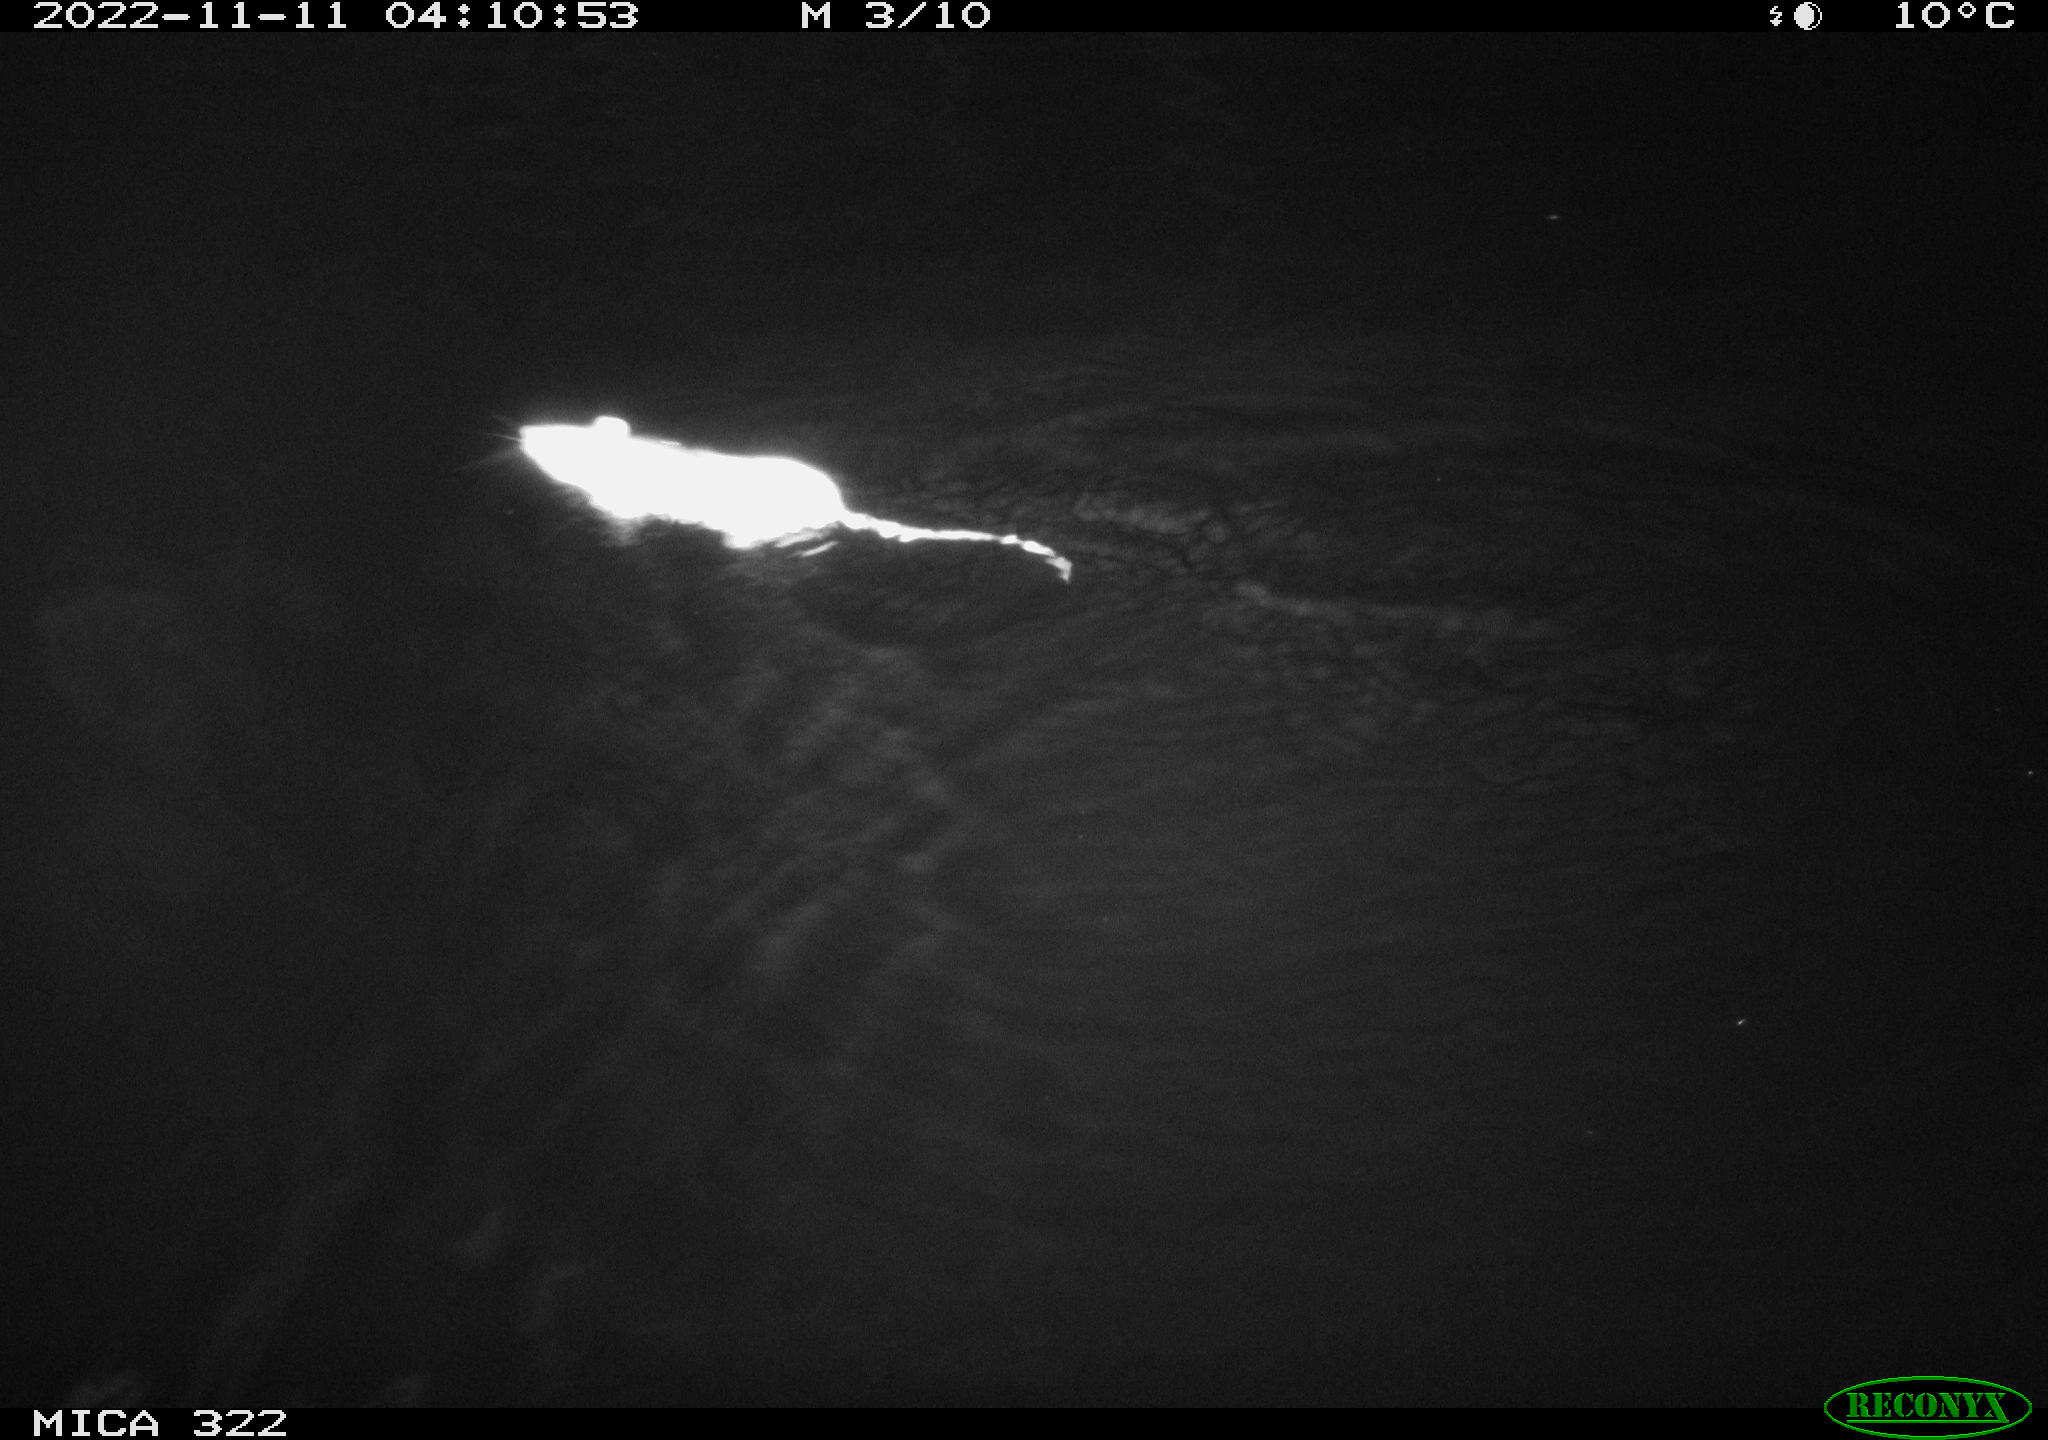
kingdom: Animalia
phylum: Chordata
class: Mammalia
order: Rodentia
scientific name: Rodentia
